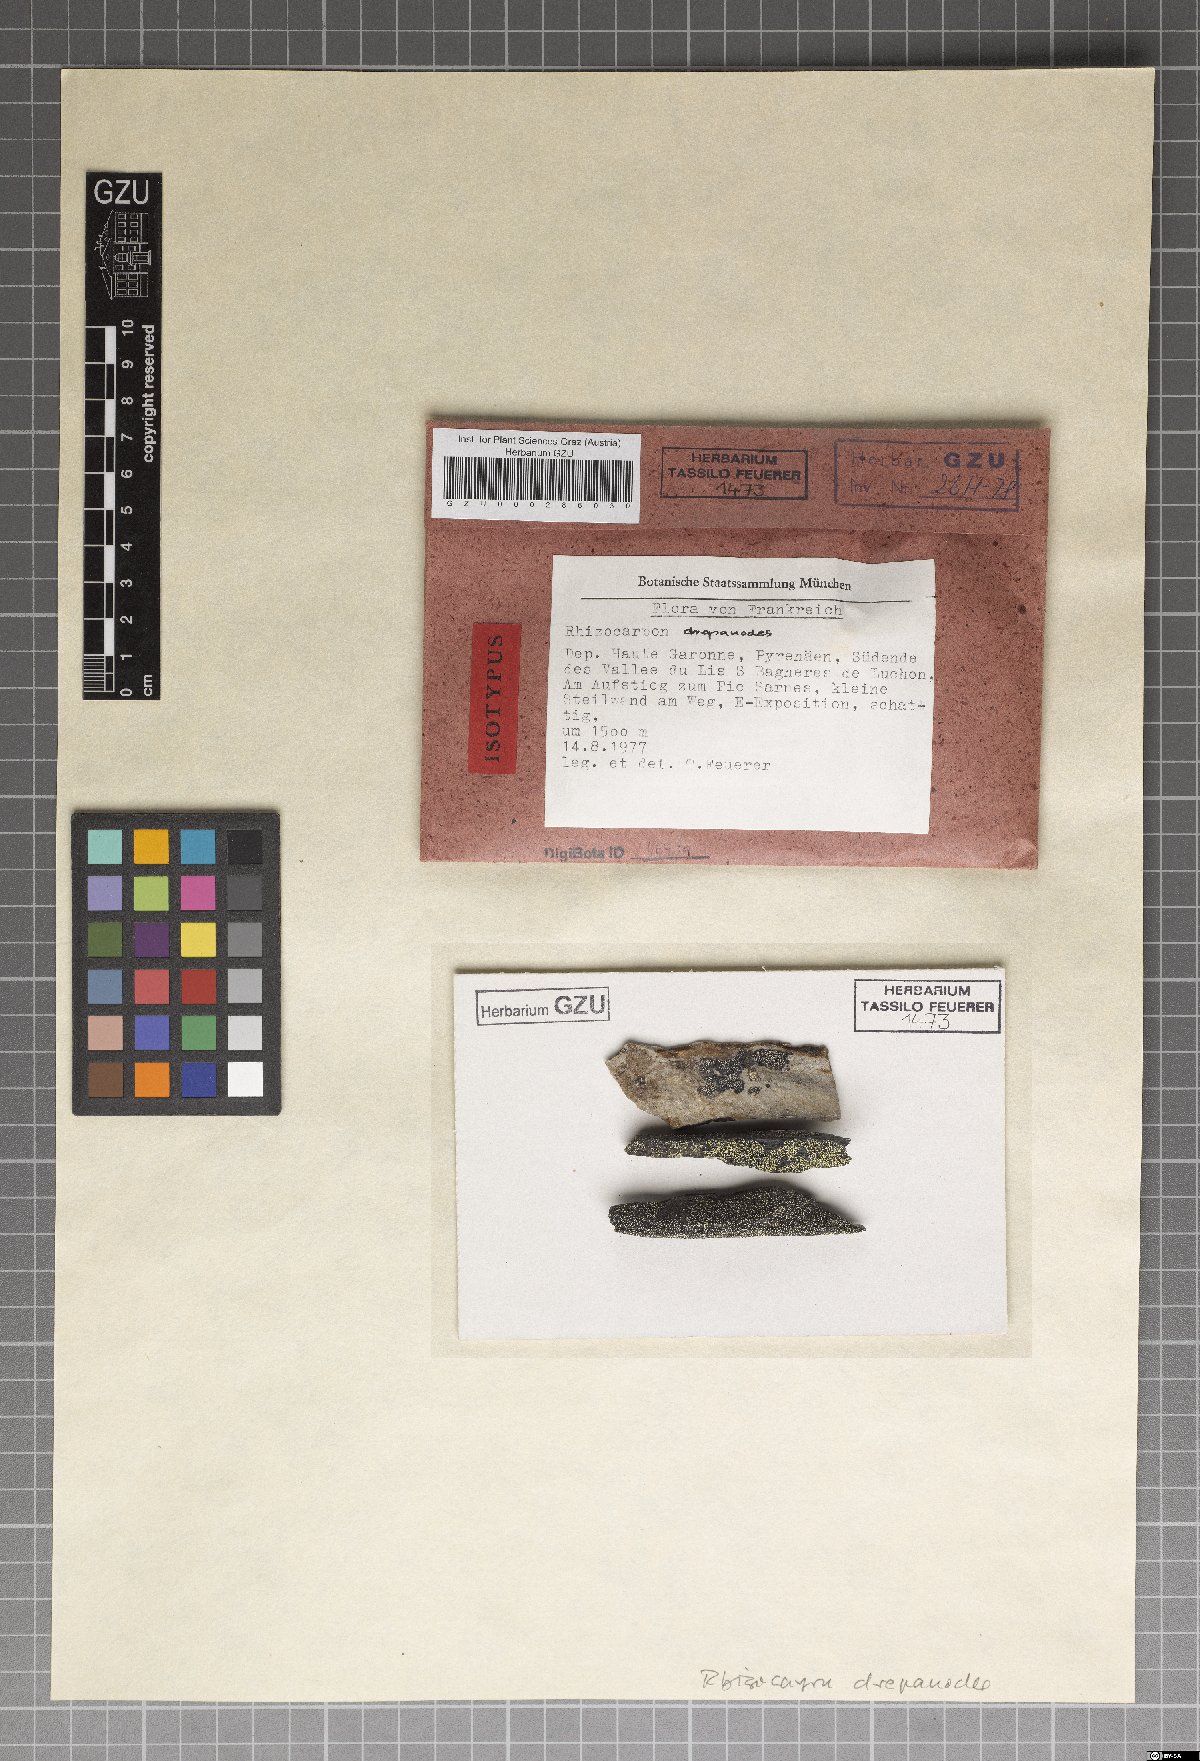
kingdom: Fungi
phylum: Ascomycota
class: Lecanoromycetes
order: Rhizocarpales
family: Rhizocarpaceae
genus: Rhizocarpon
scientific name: Rhizocarpon ferax
